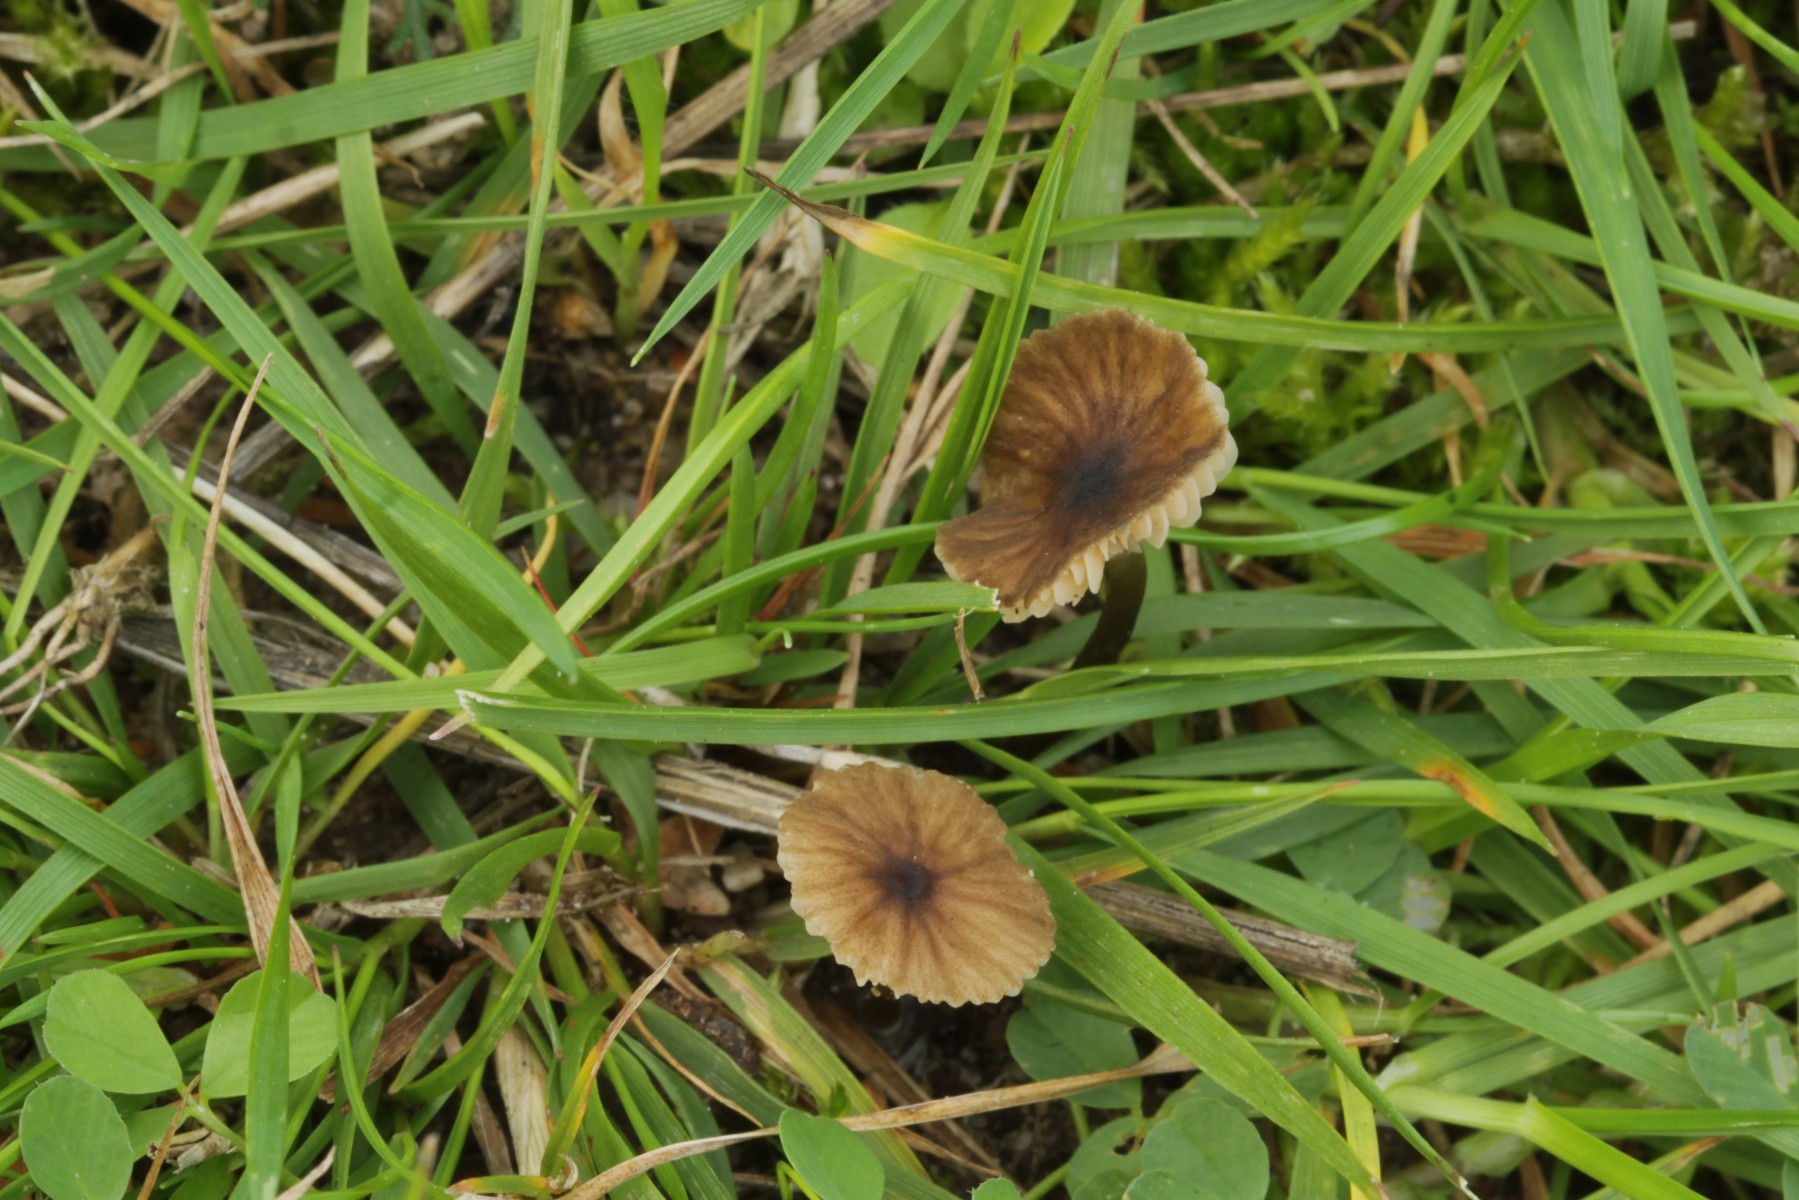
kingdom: Fungi
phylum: Basidiomycota
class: Agaricomycetes
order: Agaricales
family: Entolomataceae
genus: Entoloma
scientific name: Entoloma
